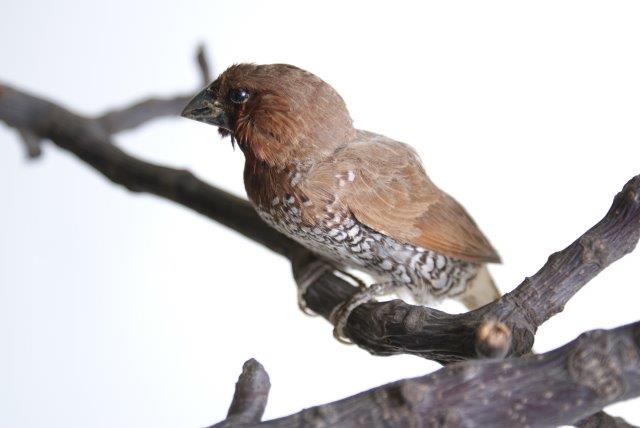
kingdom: Animalia
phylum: Chordata
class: Aves
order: Passeriformes
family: Estrildidae
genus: Lonchura
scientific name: Lonchura punctulata
